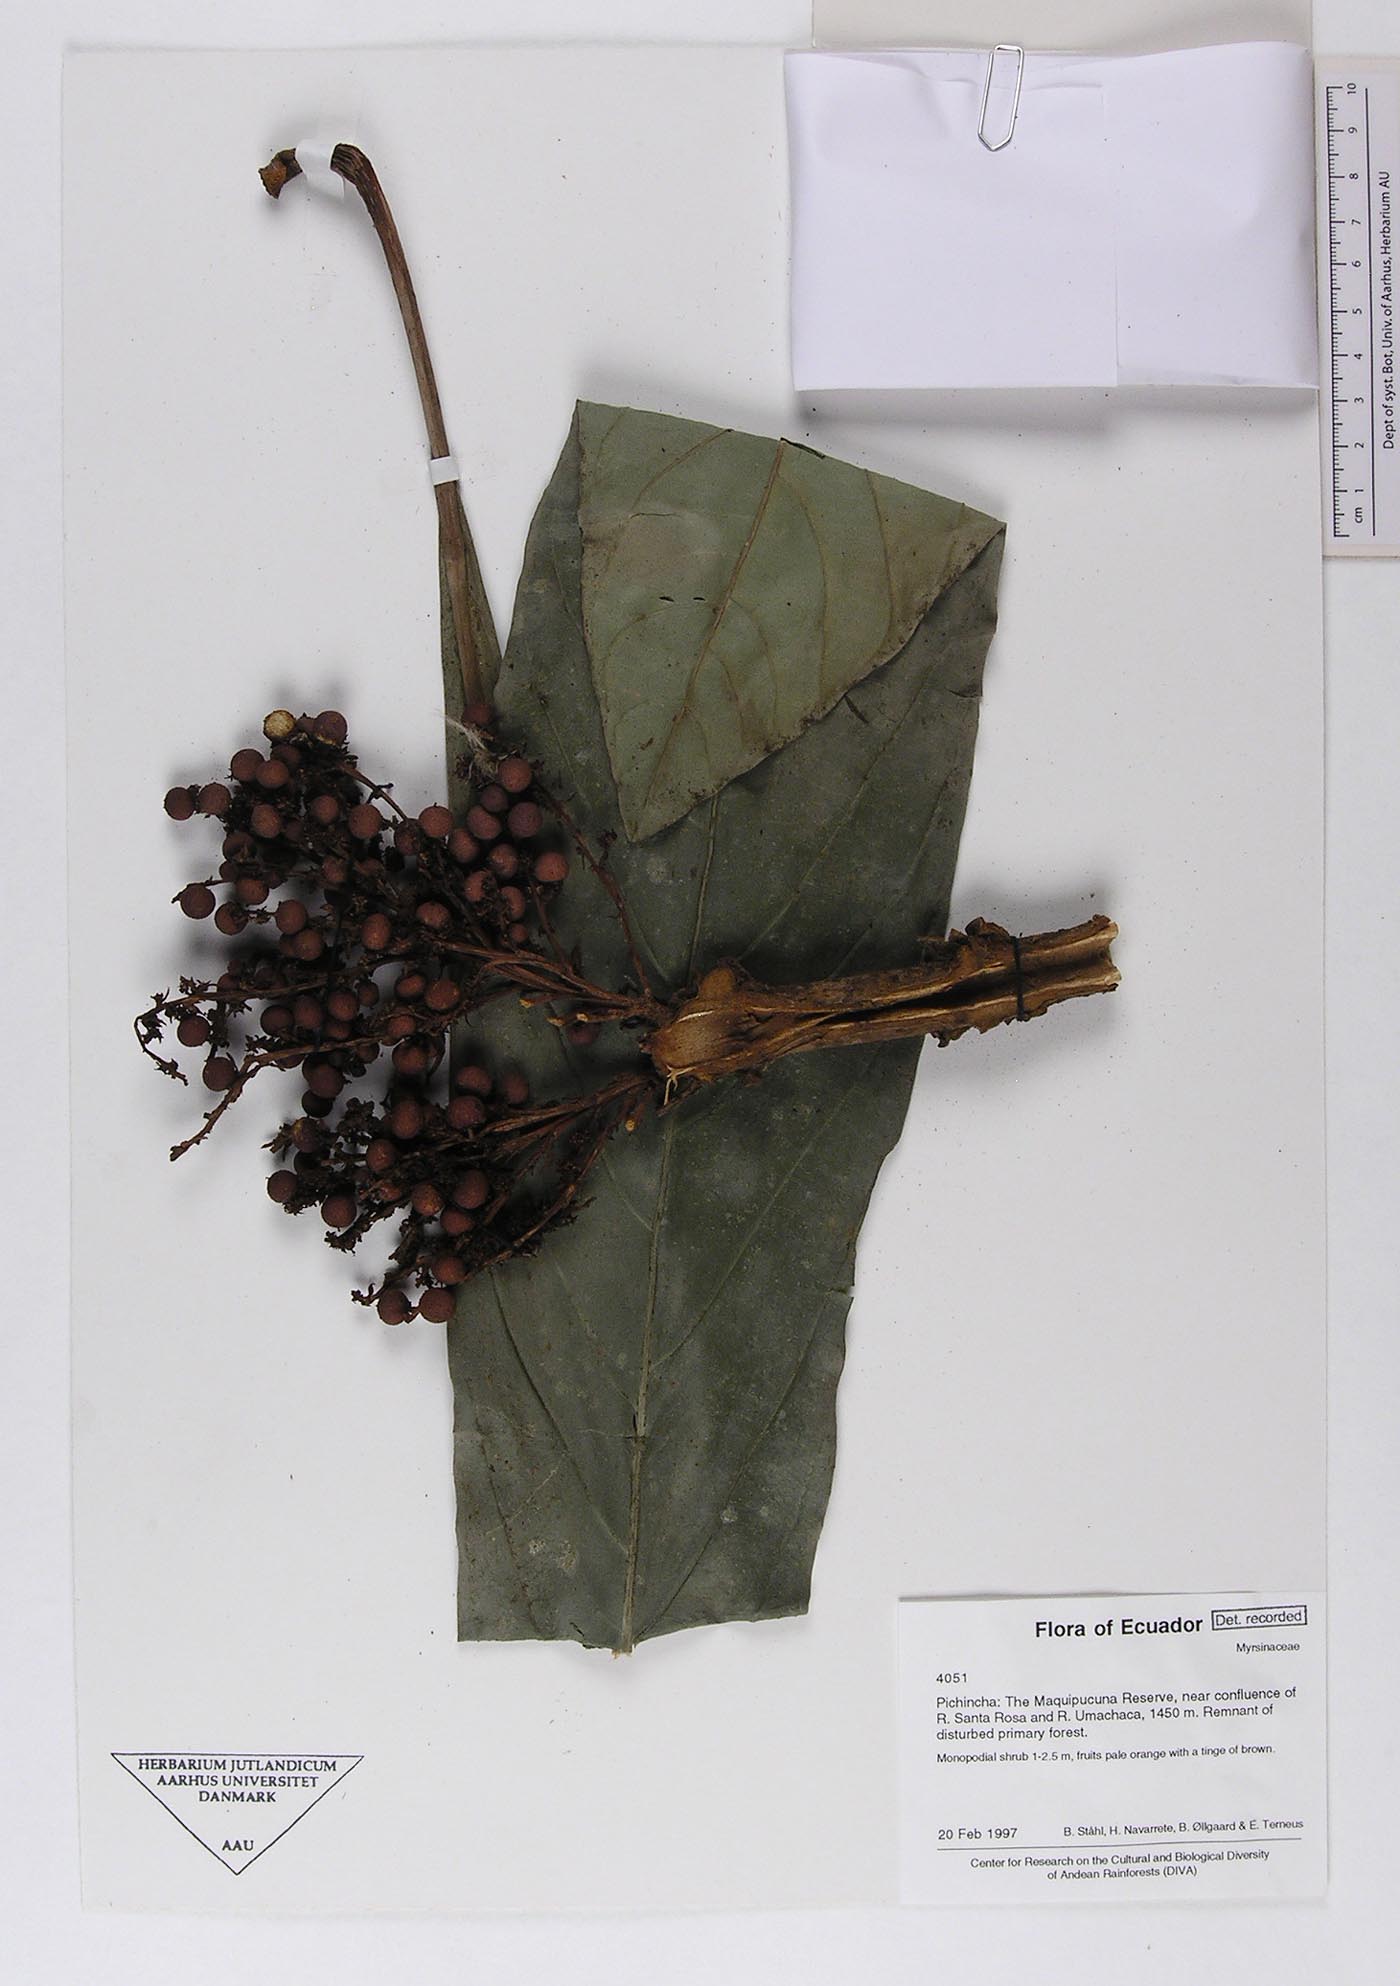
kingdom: Plantae
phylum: Tracheophyta
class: Magnoliopsida
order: Ericales
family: Primulaceae
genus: Cybianthus
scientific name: Cybianthus sprucei
